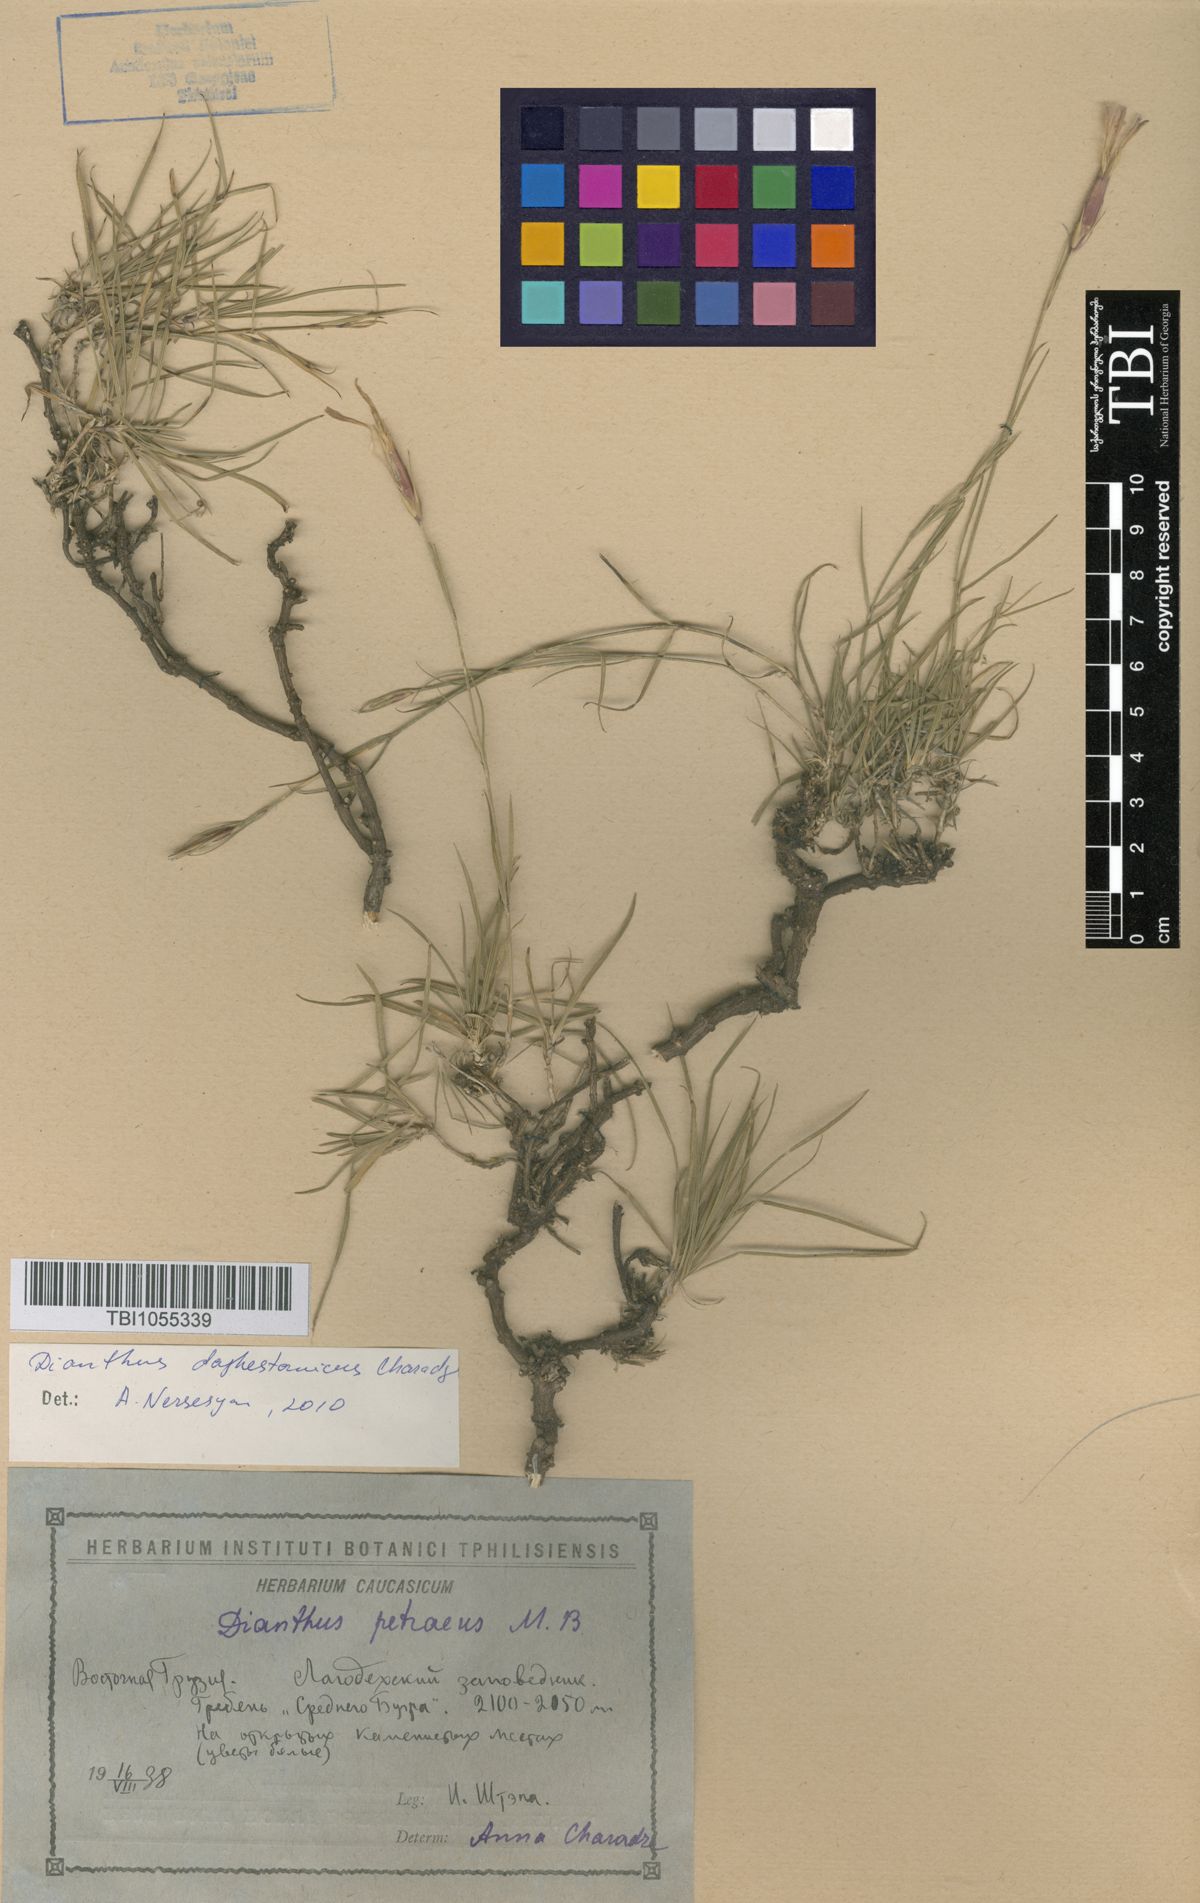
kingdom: Plantae
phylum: Tracheophyta
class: Magnoliopsida
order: Caryophyllales
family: Caryophyllaceae
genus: Dianthus
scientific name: Dianthus cretaceus
